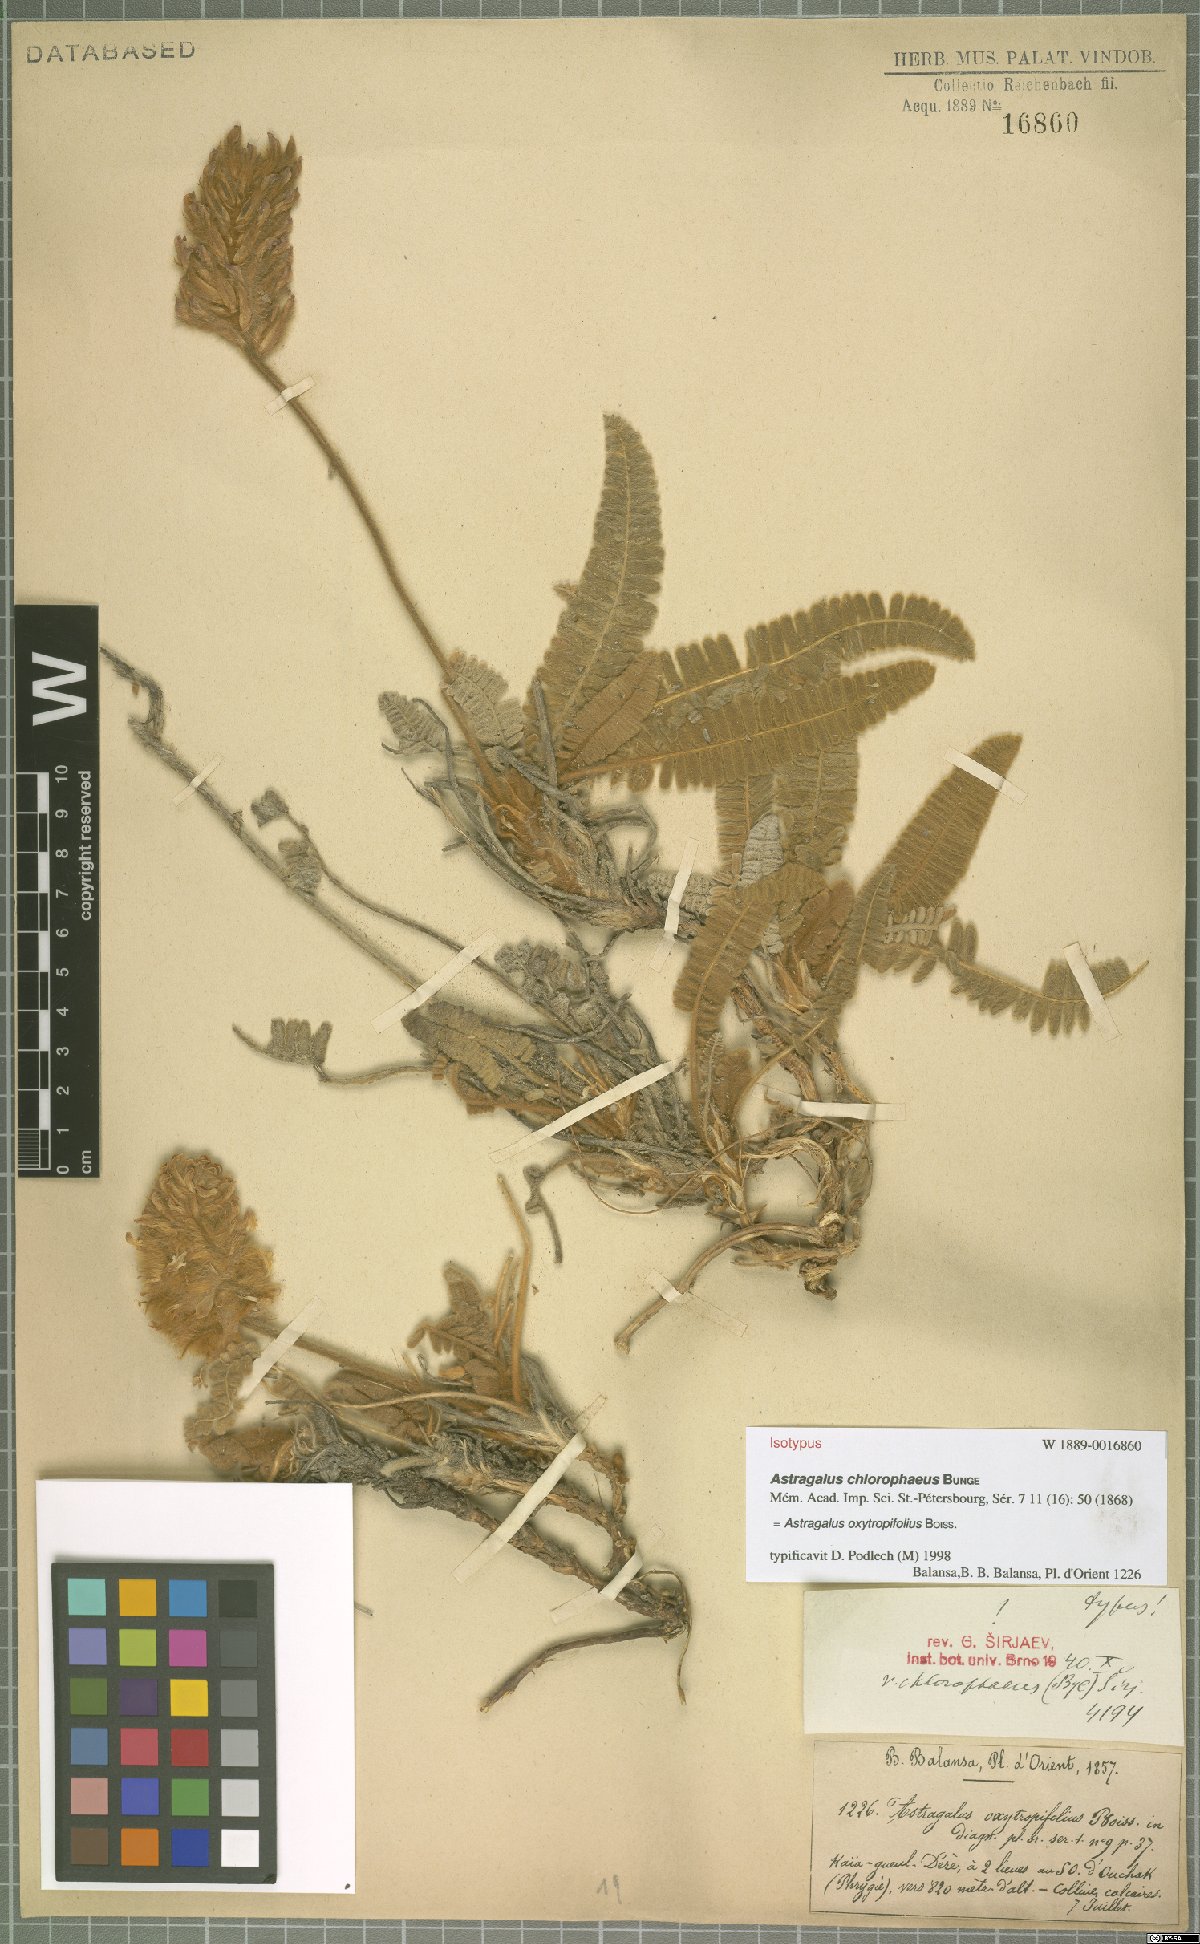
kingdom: Plantae
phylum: Tracheophyta
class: Magnoliopsida
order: Fabales
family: Fabaceae
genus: Astragalus
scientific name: Astragalus oxytropifolius
